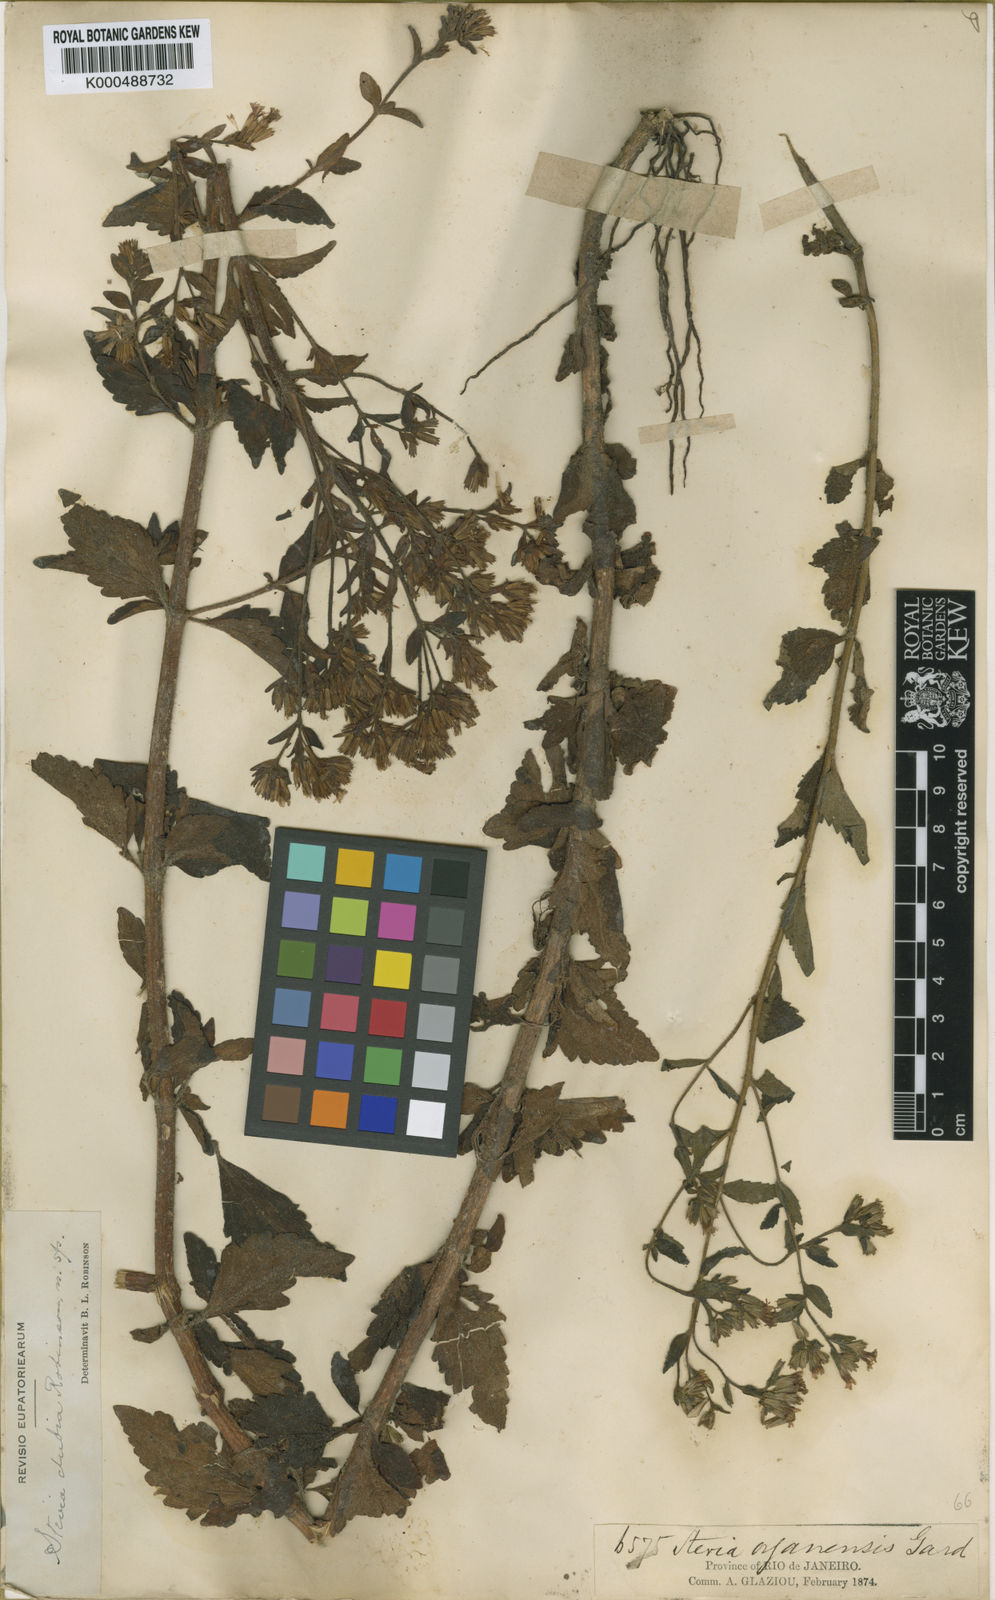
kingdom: Plantae
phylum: Tracheophyta
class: Magnoliopsida
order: Asterales
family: Asteraceae
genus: Stevia
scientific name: Stevia dubia
